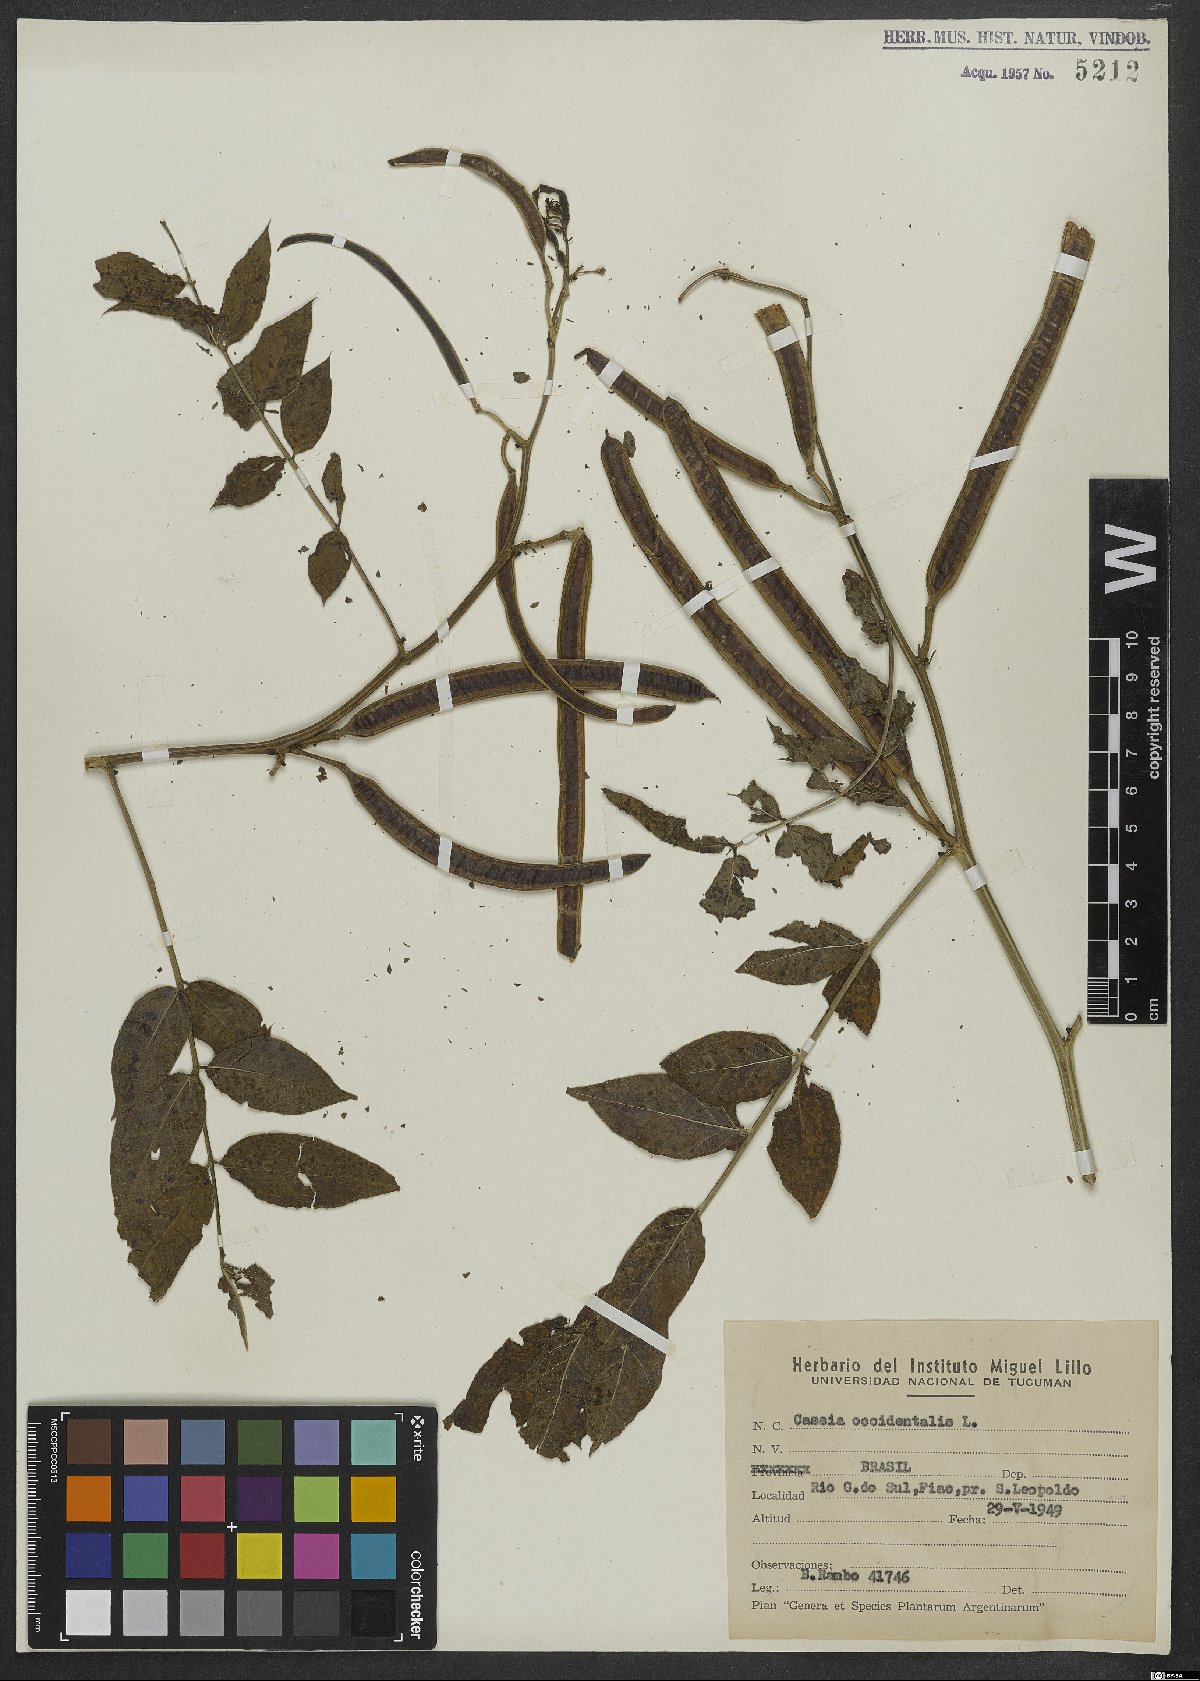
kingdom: Plantae
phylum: Tracheophyta
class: Magnoliopsida
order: Fabales
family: Fabaceae
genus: Senna
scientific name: Senna occidentalis
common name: Septicweed
